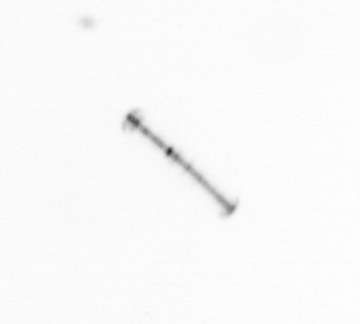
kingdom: Chromista
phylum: Ochrophyta
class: Bacillariophyceae
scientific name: Bacillariophyceae
